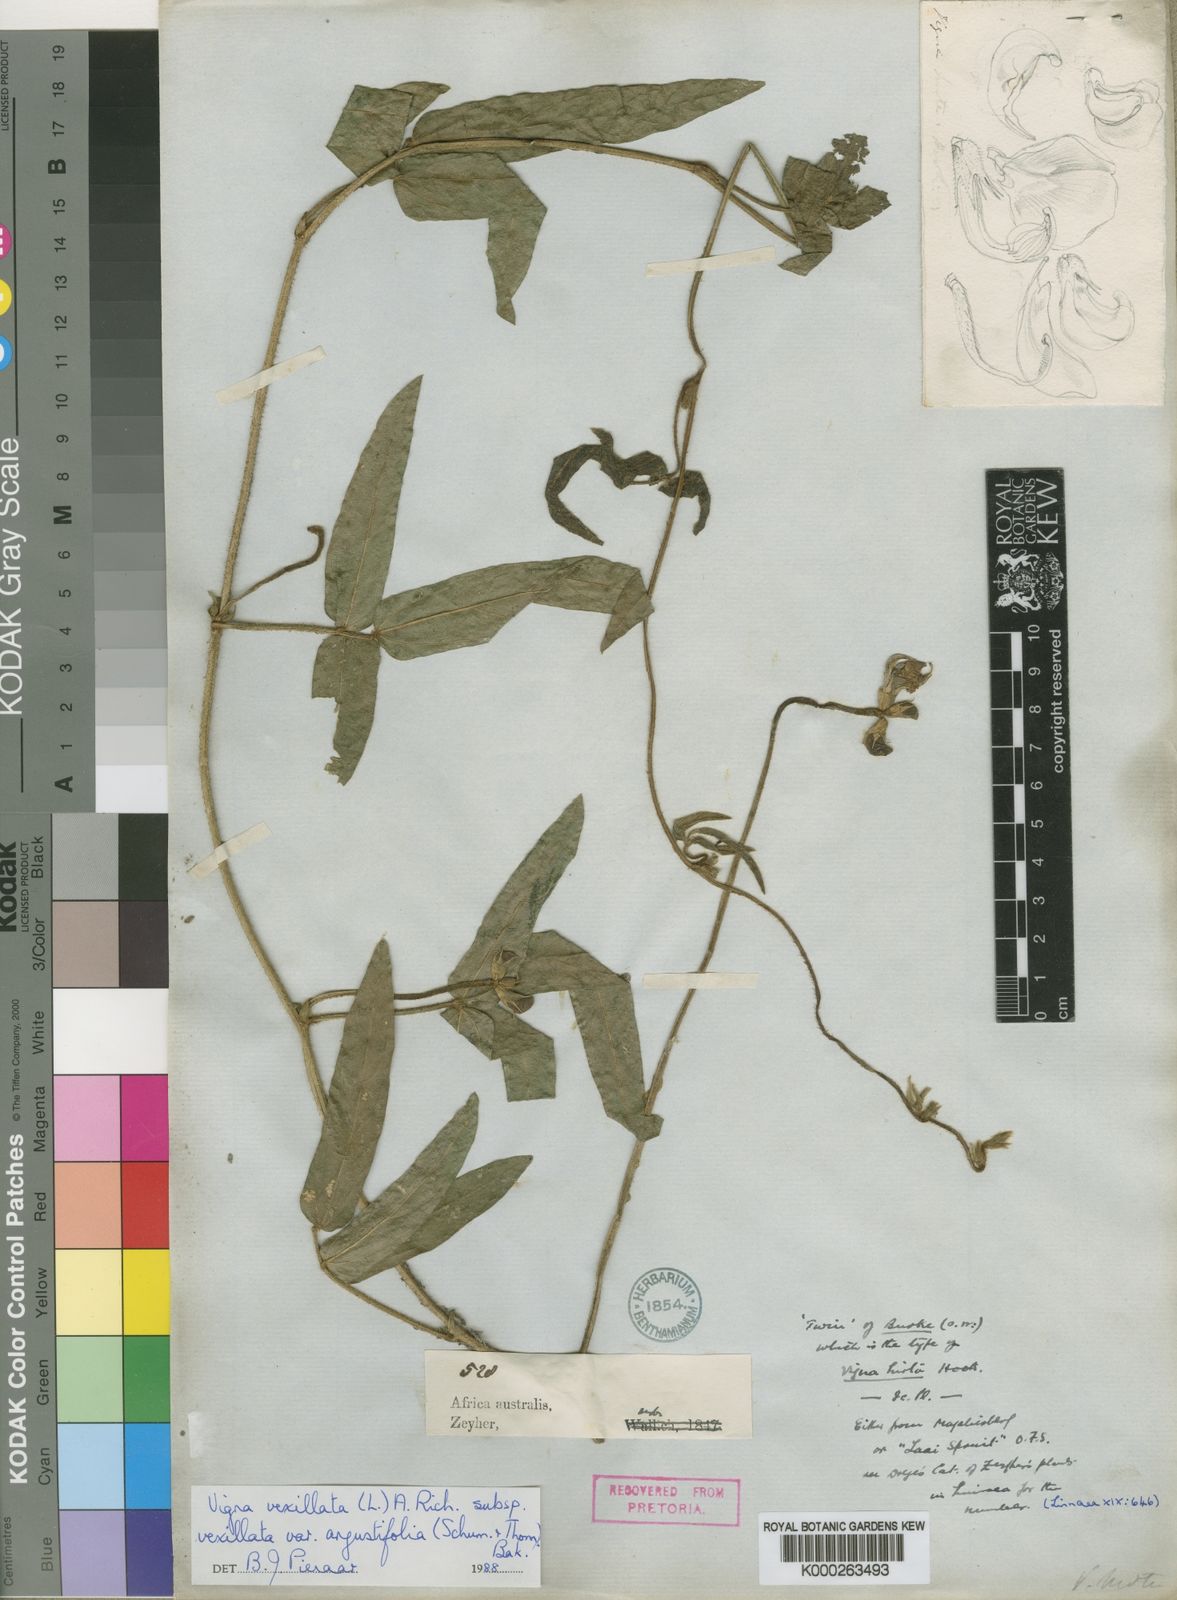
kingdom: Plantae
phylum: Tracheophyta
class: Magnoliopsida
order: Fabales
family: Fabaceae
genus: Vigna
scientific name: Vigna vexillata
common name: Zombi pea
